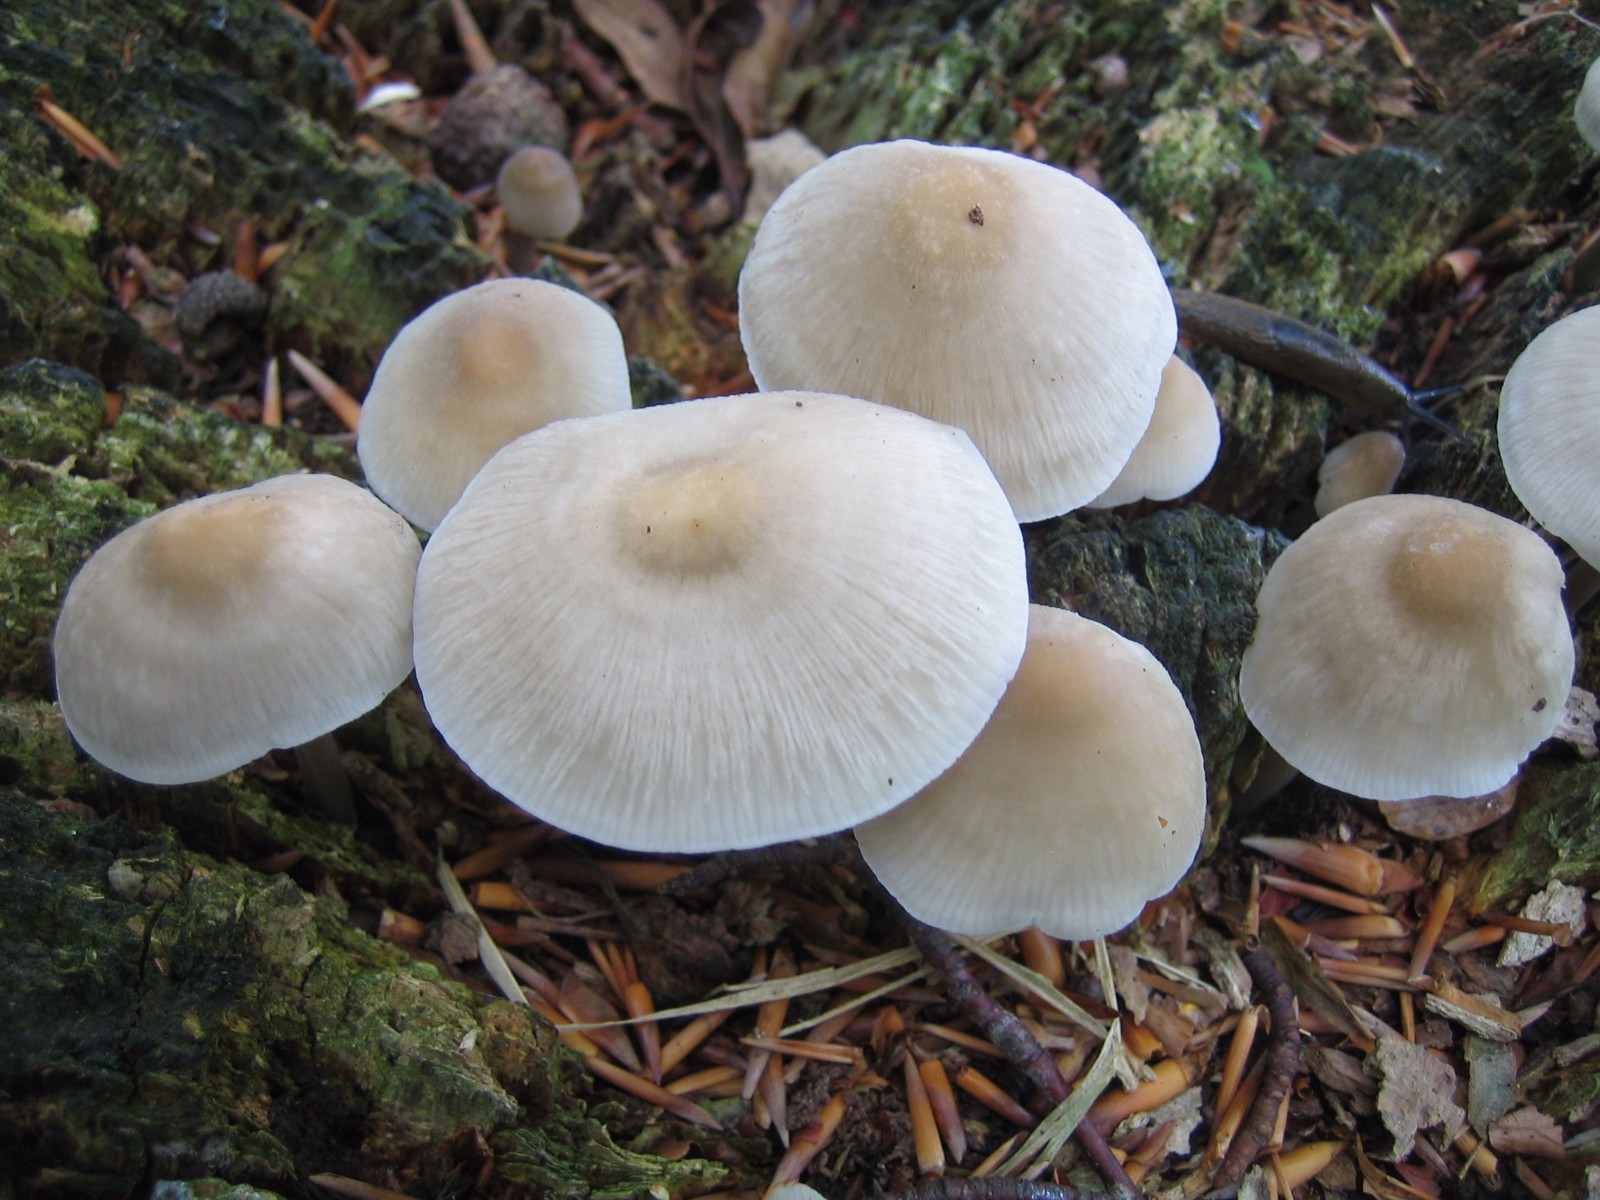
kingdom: Fungi
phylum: Basidiomycota
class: Agaricomycetes
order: Agaricales
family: Mycenaceae
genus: Mycena
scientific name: Mycena galericulata
